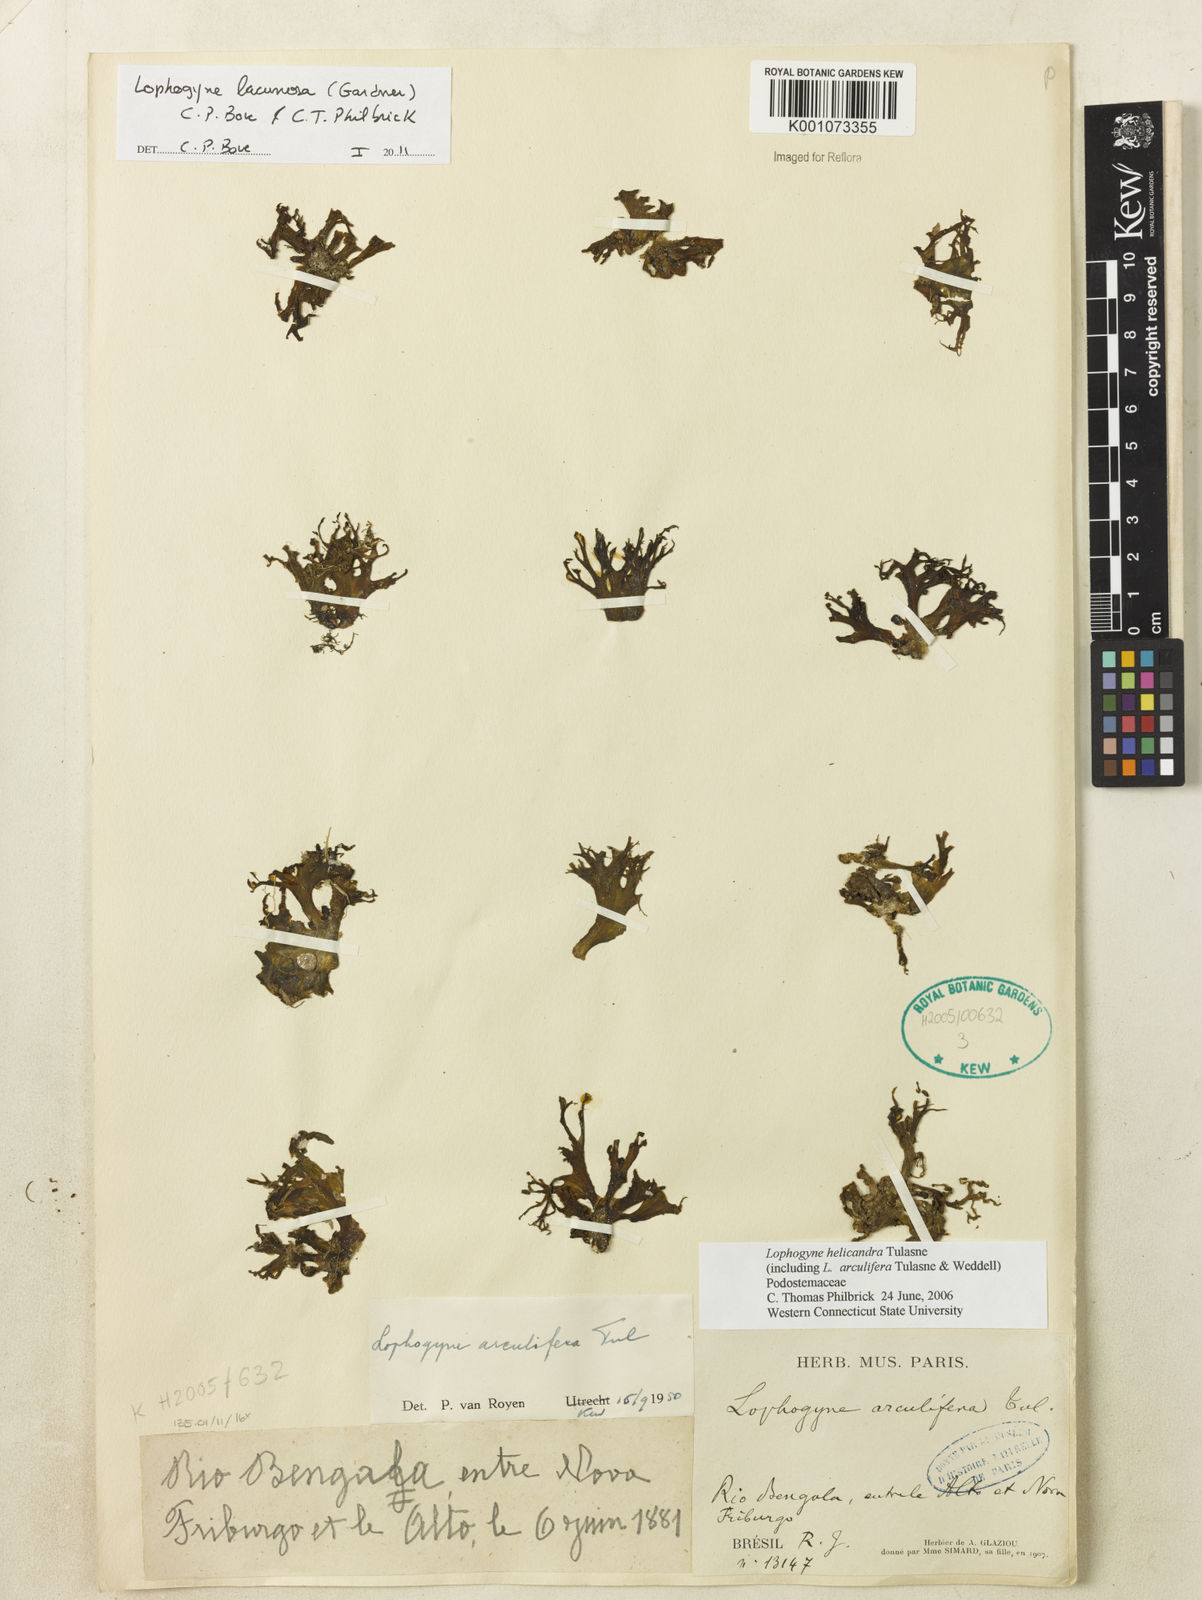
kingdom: Plantae
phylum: Tracheophyta
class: Magnoliopsida
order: Malpighiales
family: Podostemaceae
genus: Lophogyne
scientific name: Lophogyne lacunosa
